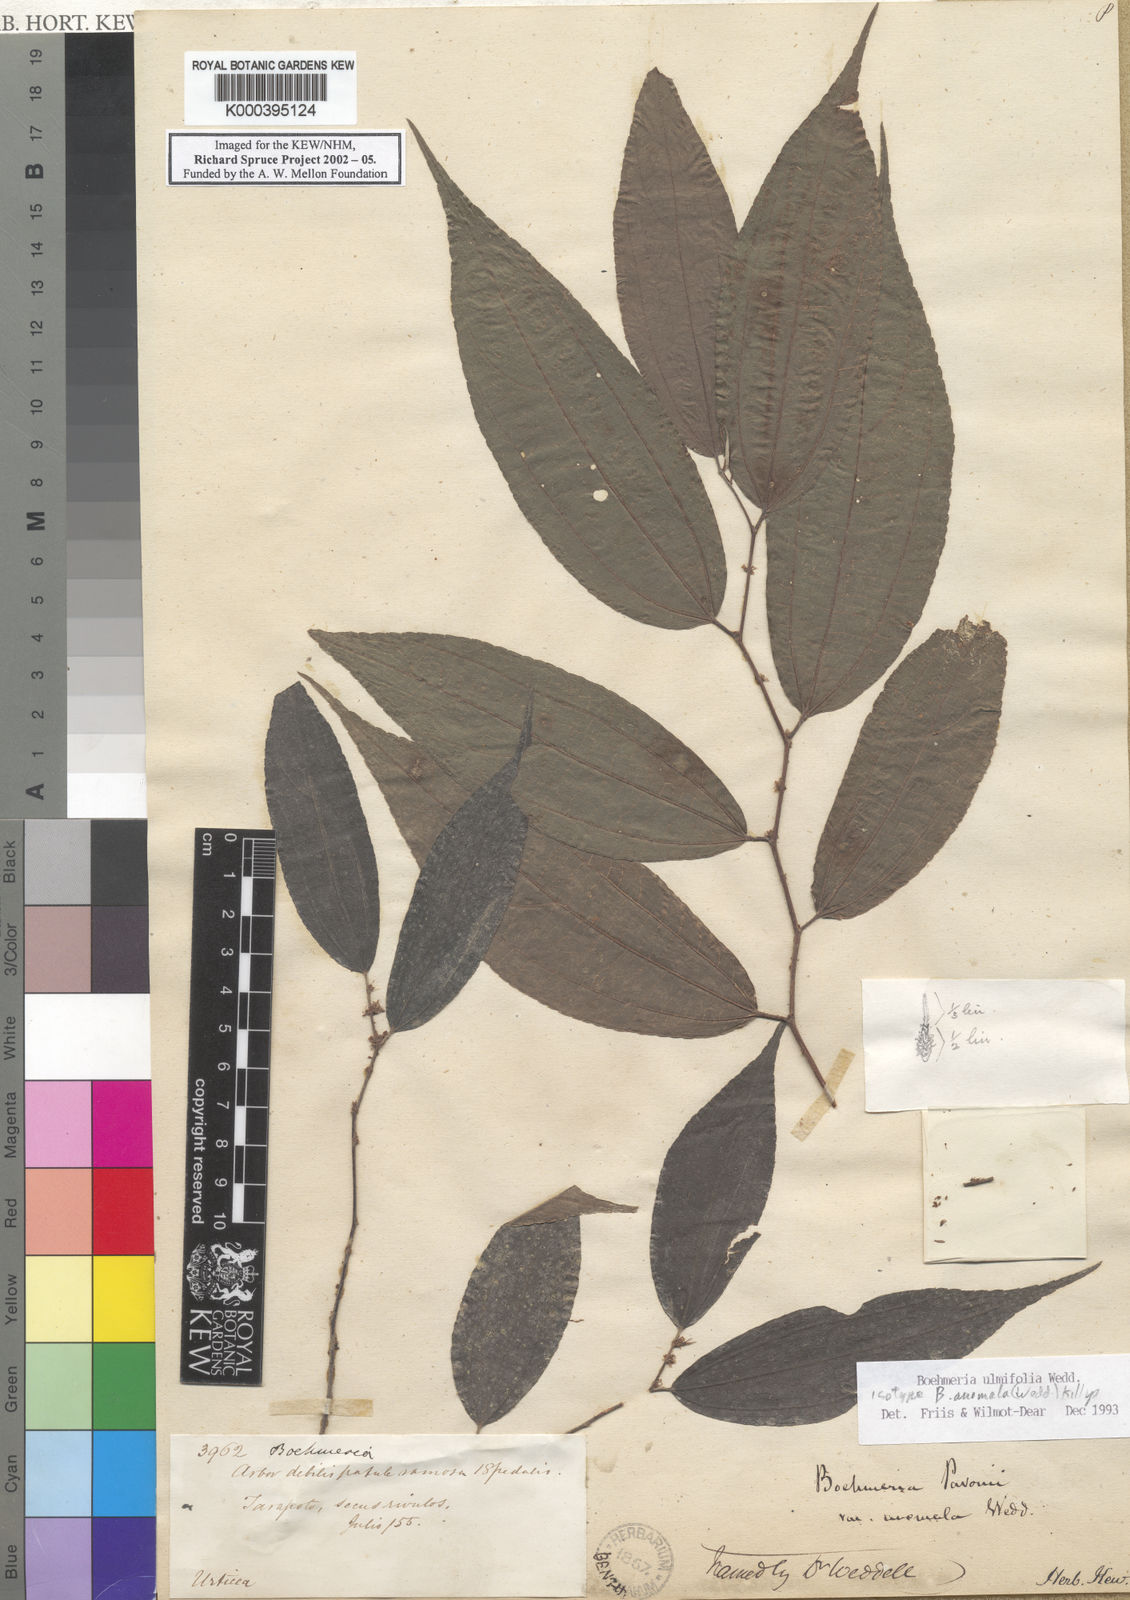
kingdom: Plantae
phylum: Tracheophyta
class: Magnoliopsida
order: Rosales
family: Urticaceae
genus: Boehmeria
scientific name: Boehmeria ulmifolia
